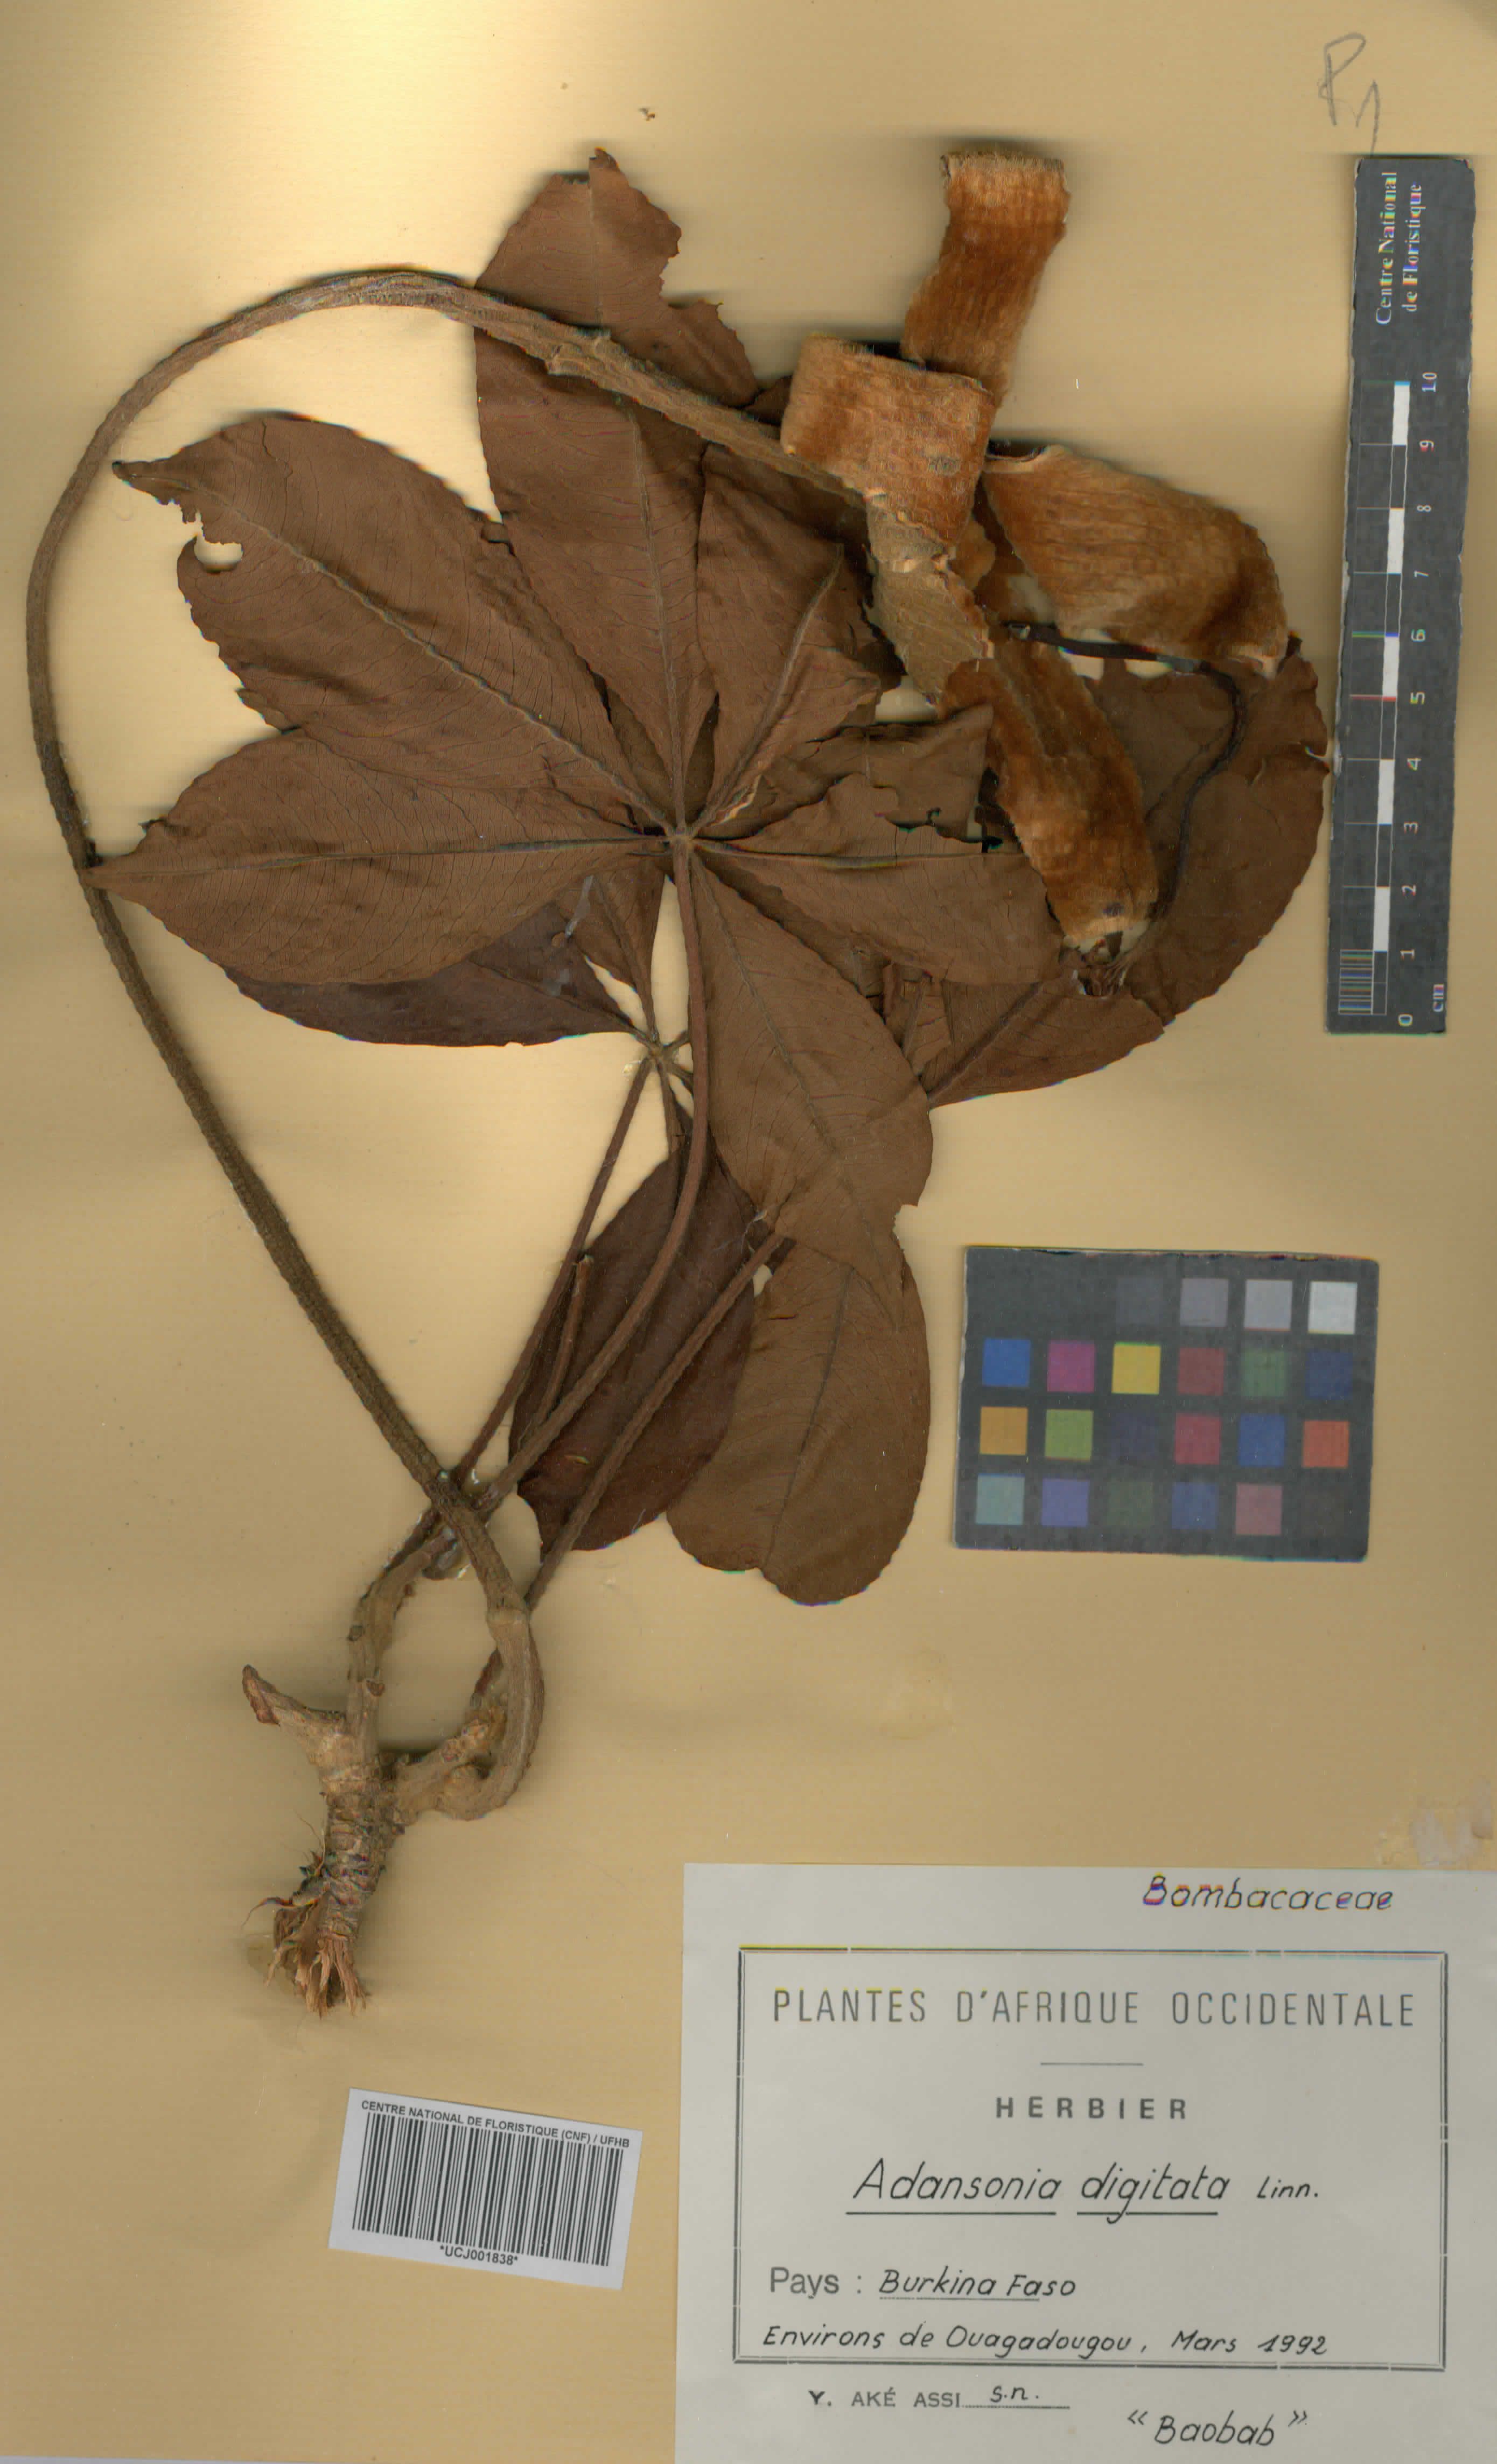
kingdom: Plantae
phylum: Tracheophyta
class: Magnoliopsida
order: Malvales
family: Malvaceae
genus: Adansonia
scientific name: Adansonia digitata
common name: Dead-rat-tree
